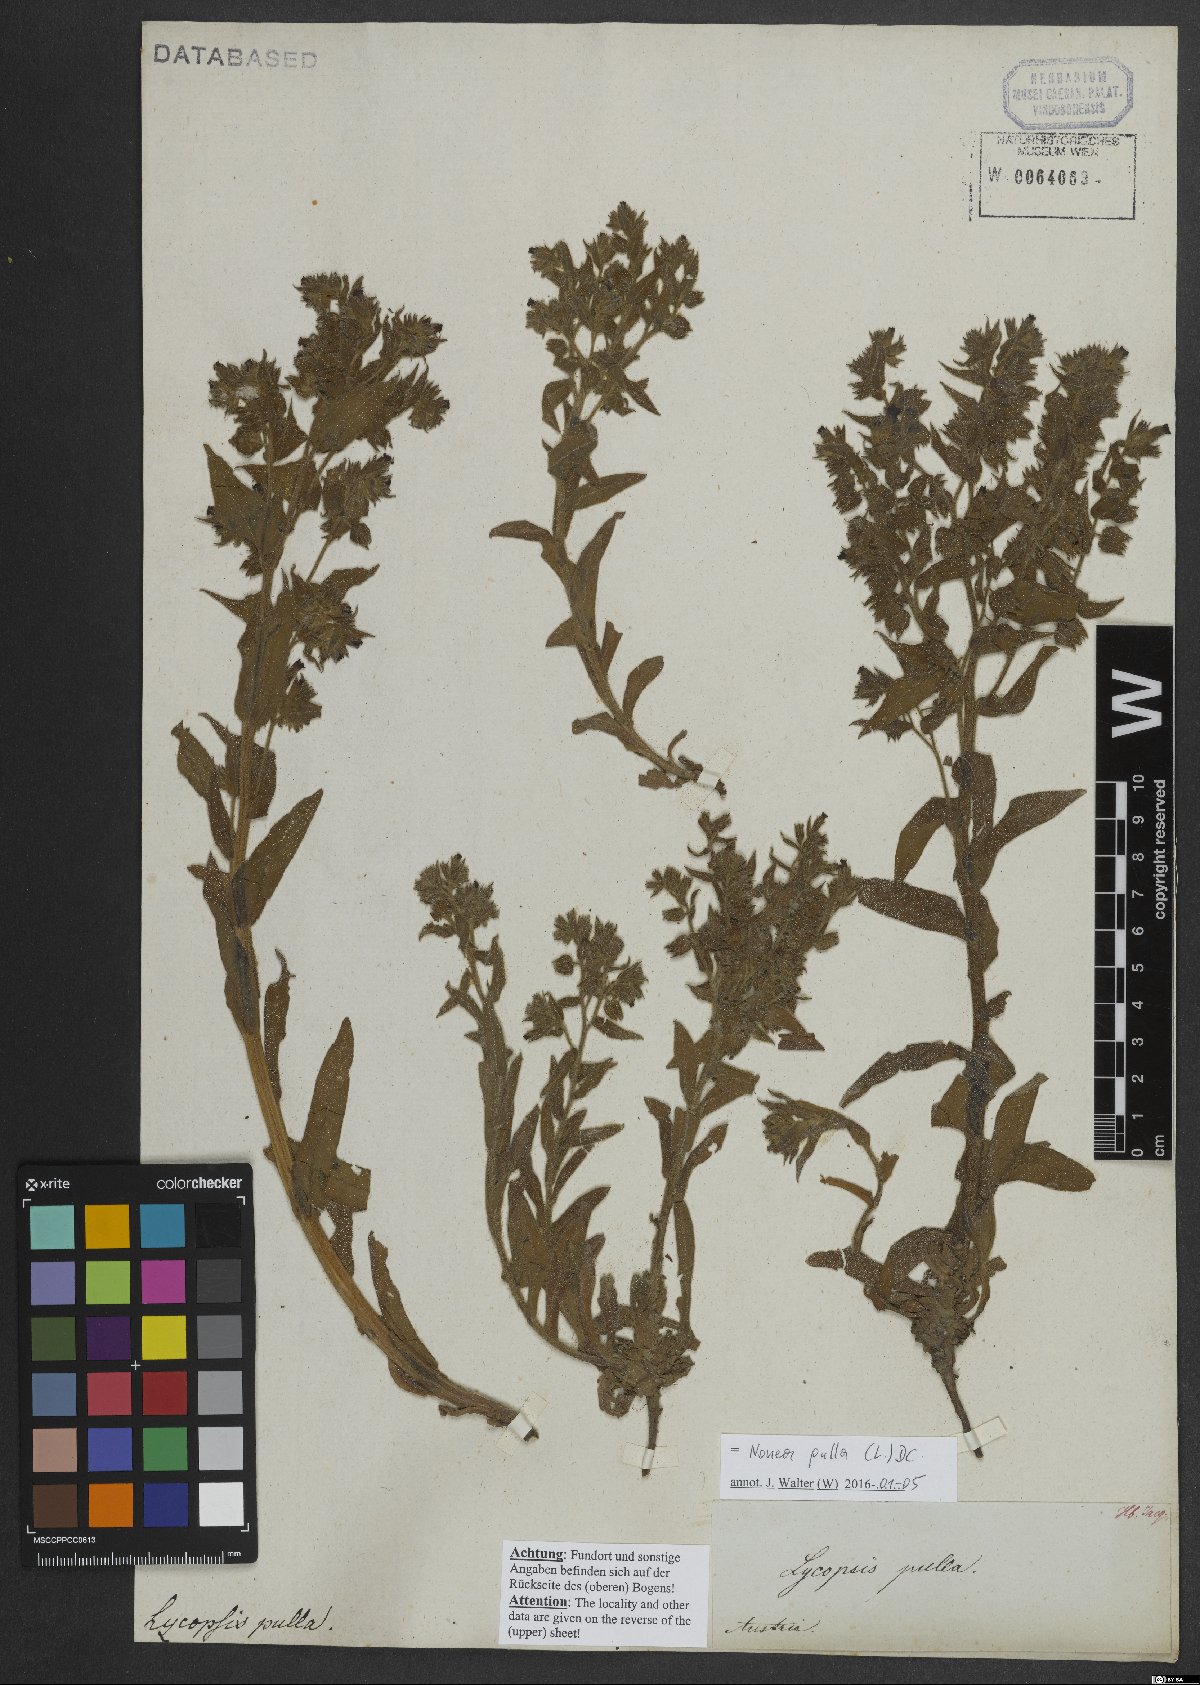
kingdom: Plantae
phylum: Tracheophyta
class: Magnoliopsida
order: Boraginales
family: Boraginaceae
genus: Nonea
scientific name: Nonea pulla
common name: Brown nonea
